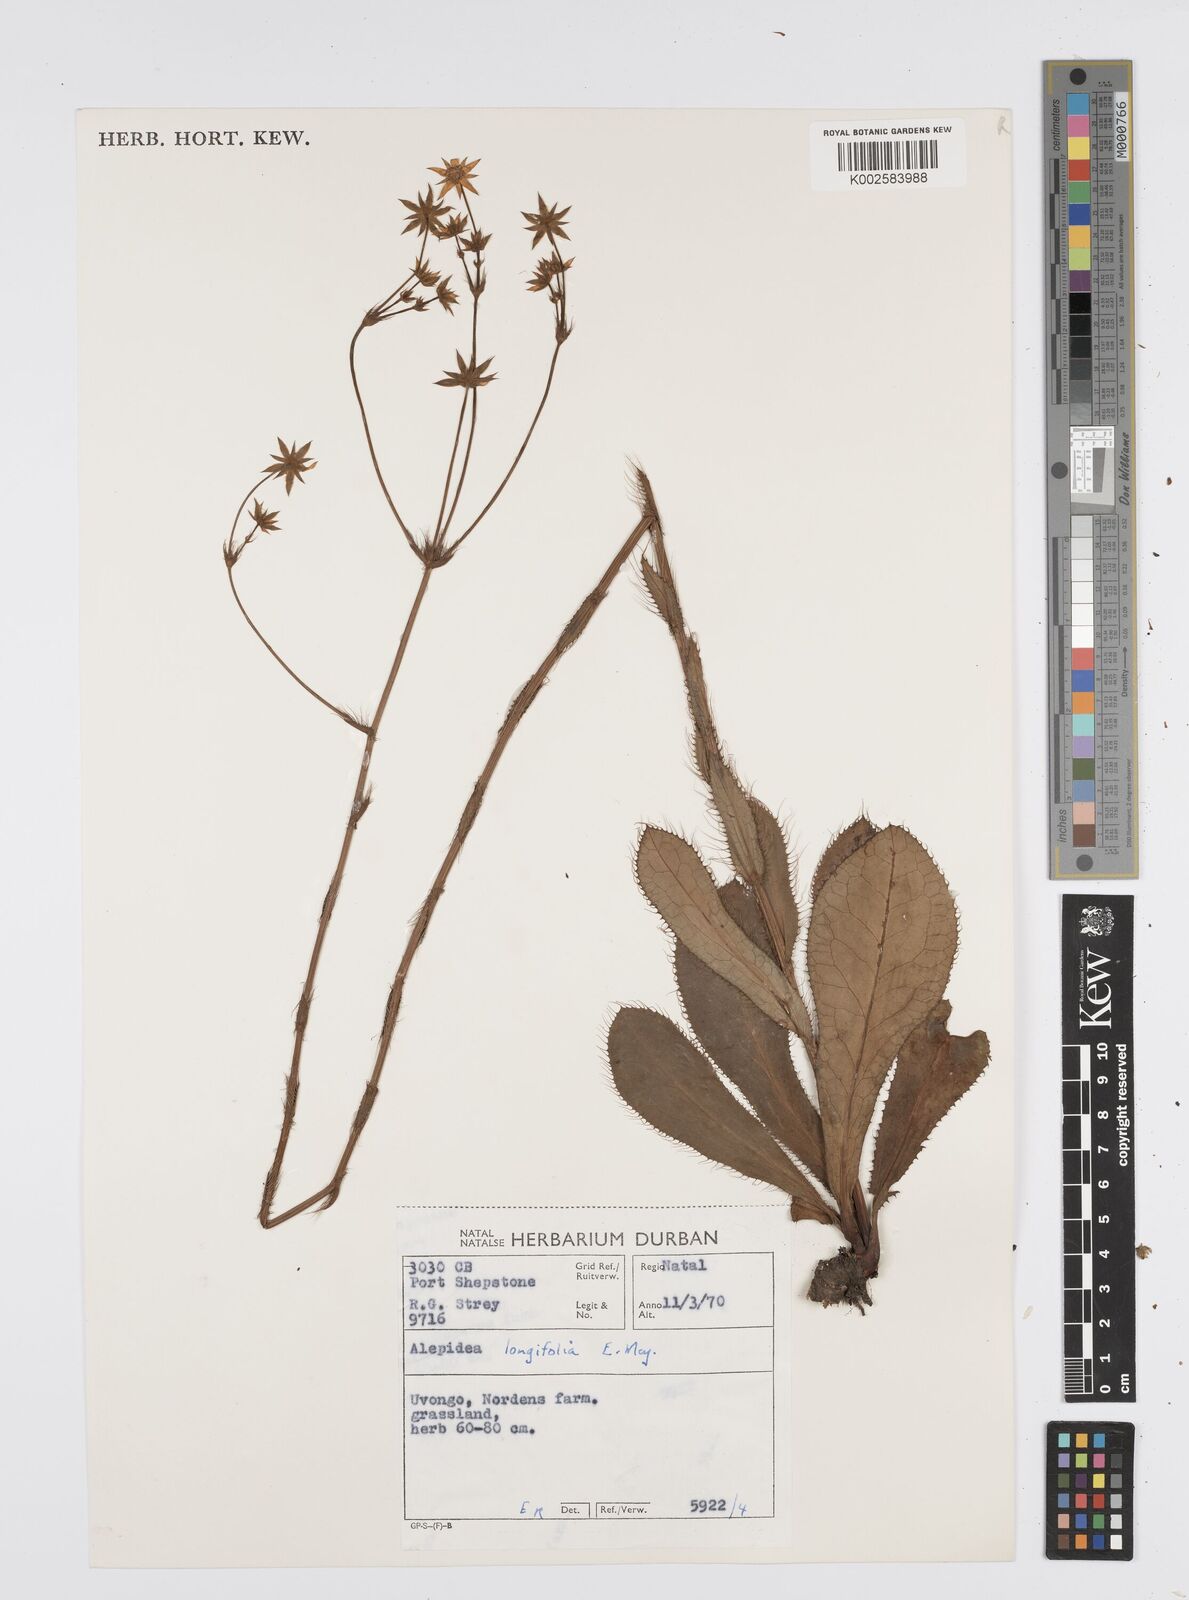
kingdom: Plantae
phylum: Tracheophyta
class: Magnoliopsida
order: Apiales
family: Apiaceae
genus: Alepidea
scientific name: Alepidea
